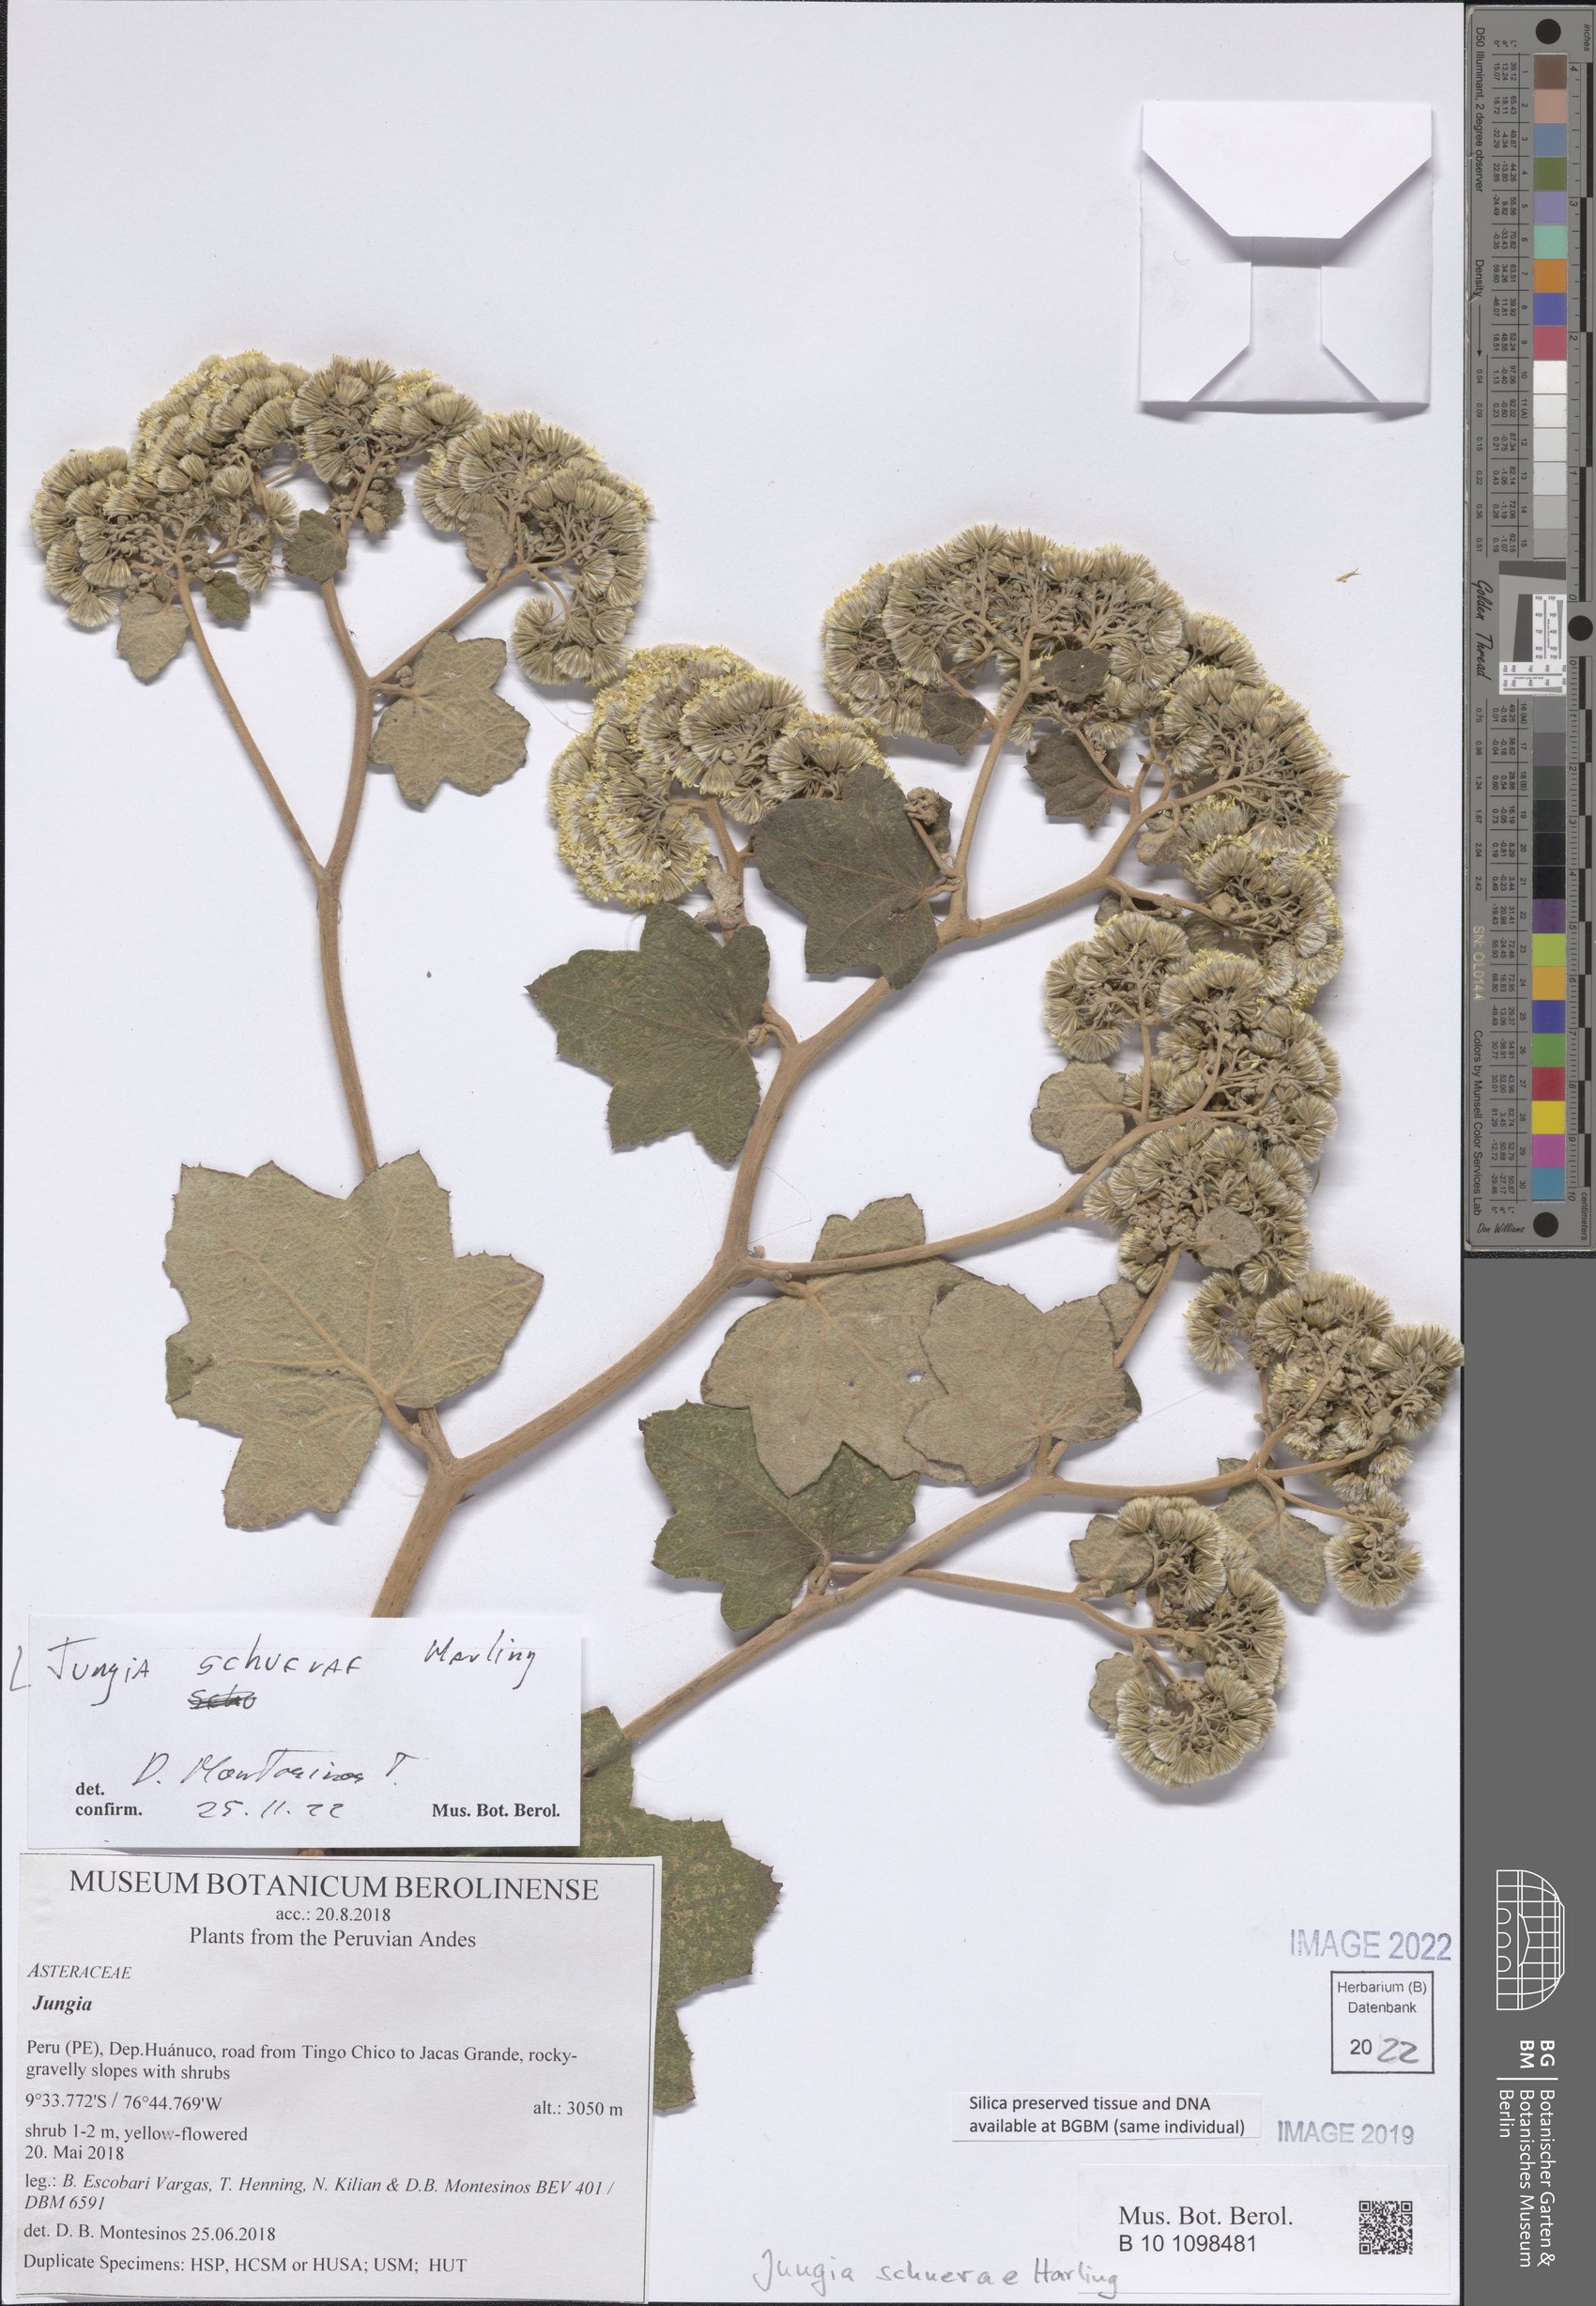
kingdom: Plantae
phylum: Tracheophyta
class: Magnoliopsida
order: Asterales
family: Asteraceae
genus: Jungia
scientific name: Jungia schuerae
